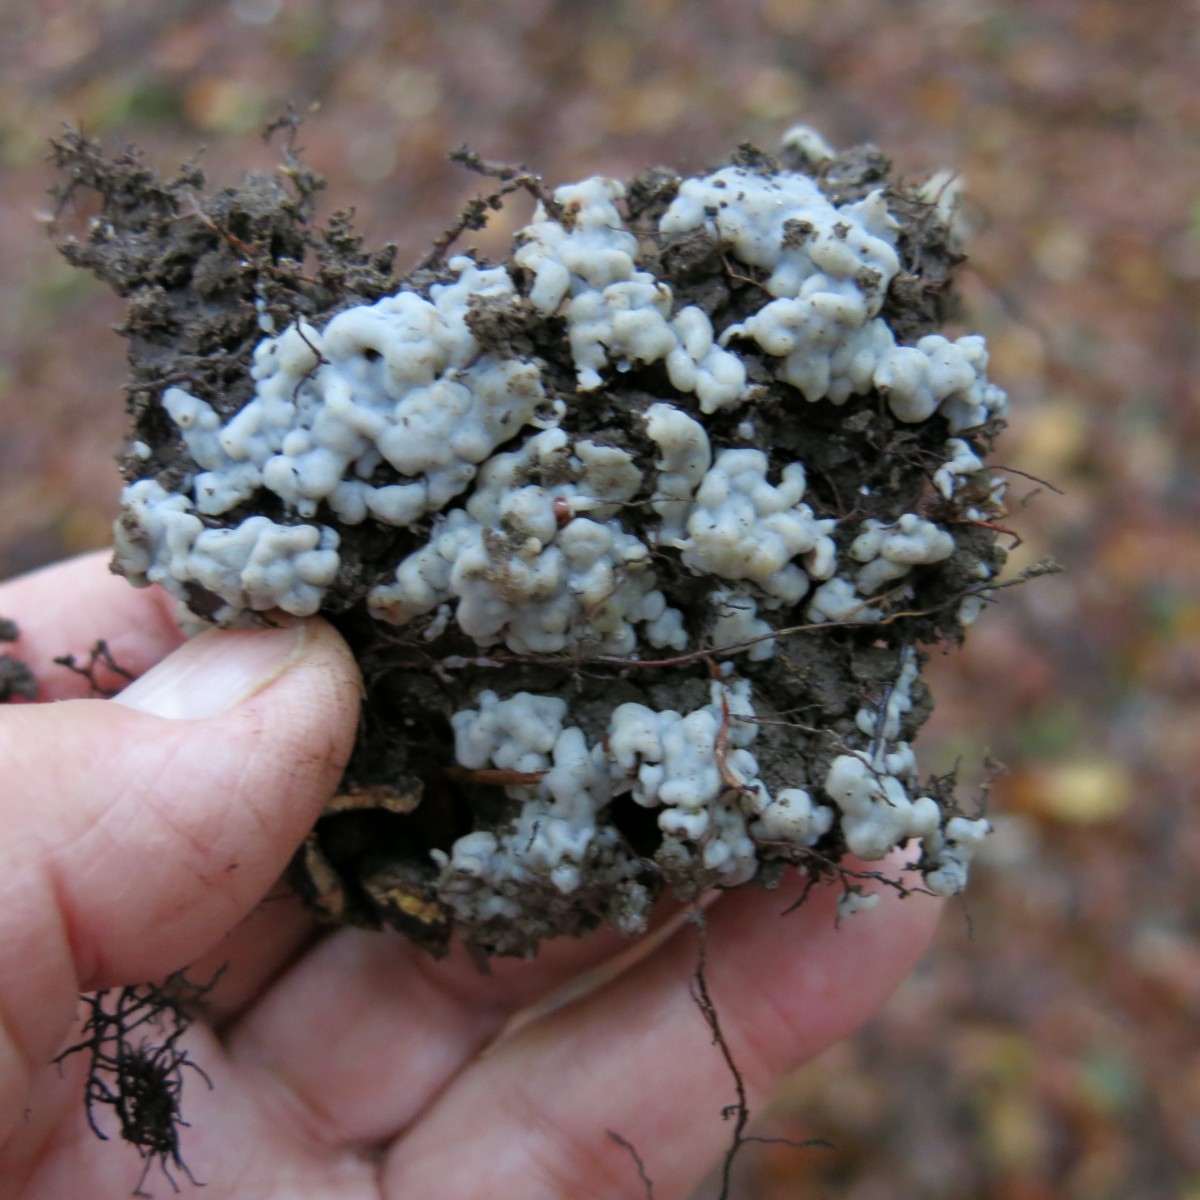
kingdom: Fungi
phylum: Basidiomycota
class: Agaricomycetes
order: Sebacinales
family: Sebacinaceae
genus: Sebacina
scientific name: Sebacina
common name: bævretalg
